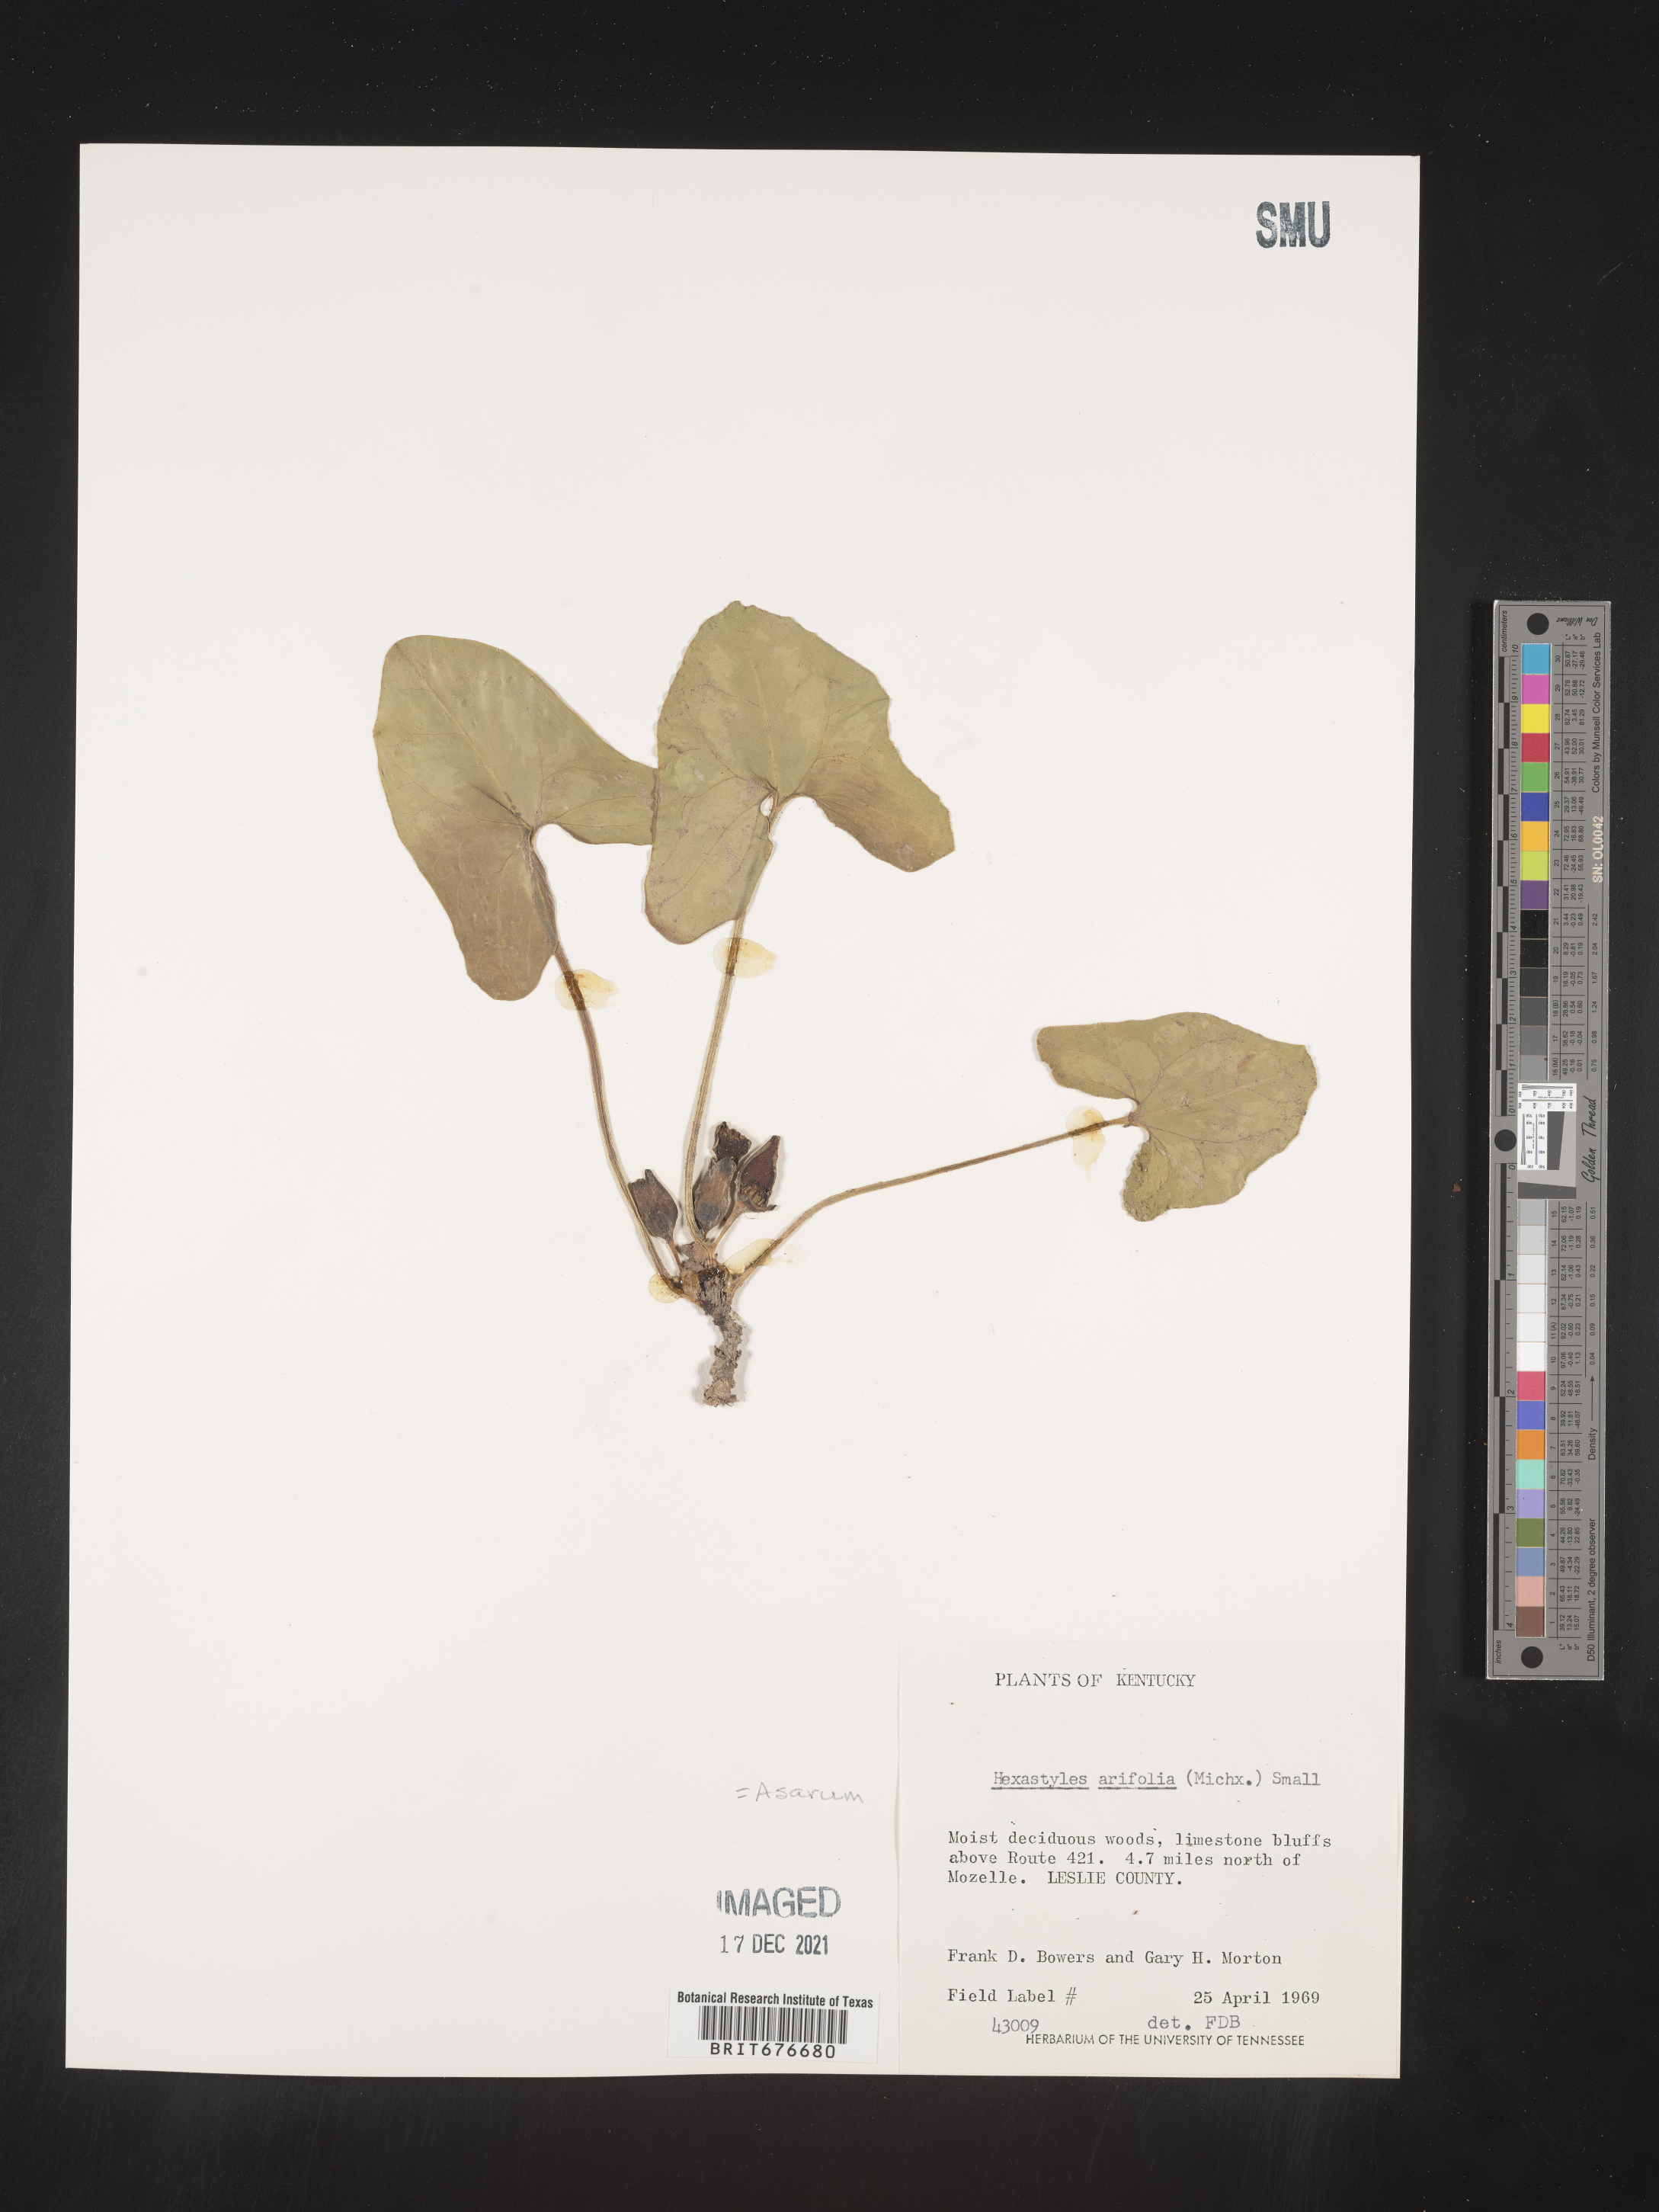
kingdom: Plantae
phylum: Tracheophyta
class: Magnoliopsida
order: Piperales
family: Aristolochiaceae
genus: Hexastylis
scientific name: Hexastylis arifolia
